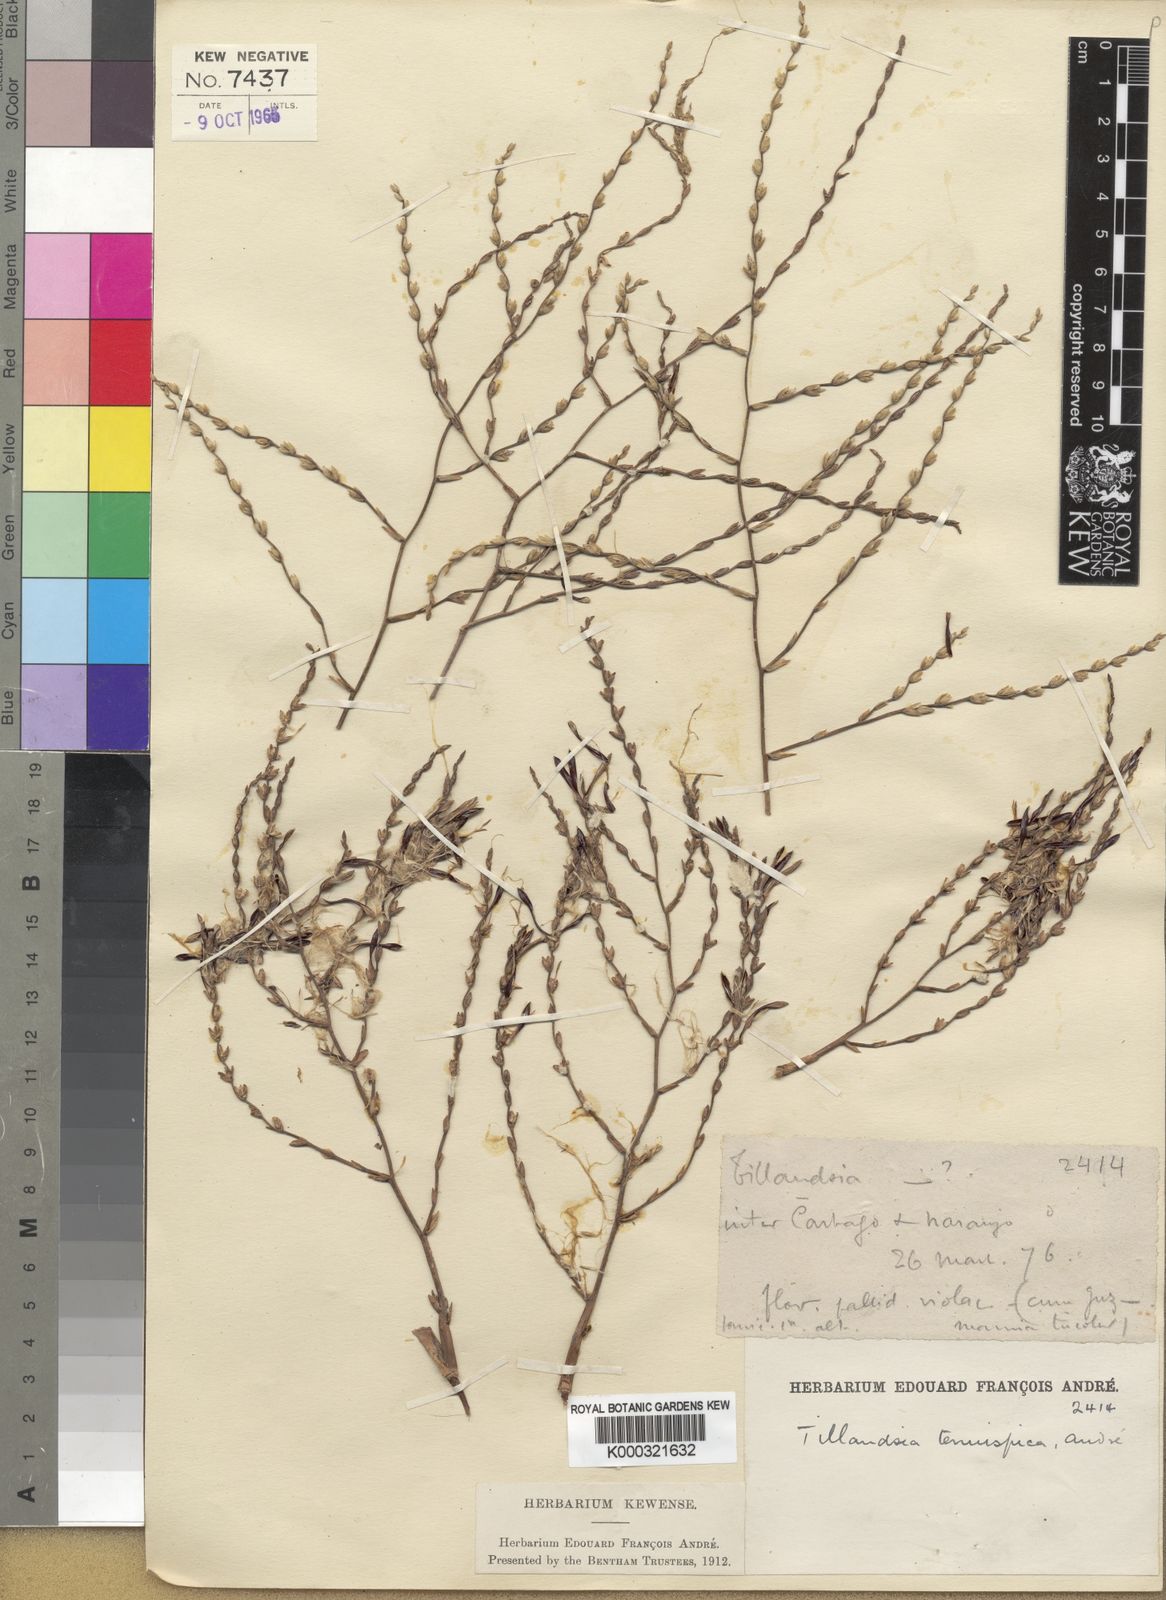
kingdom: Plantae
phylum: Tracheophyta
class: Liliopsida
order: Poales
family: Bromeliaceae
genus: Tillandsia
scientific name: Tillandsia
